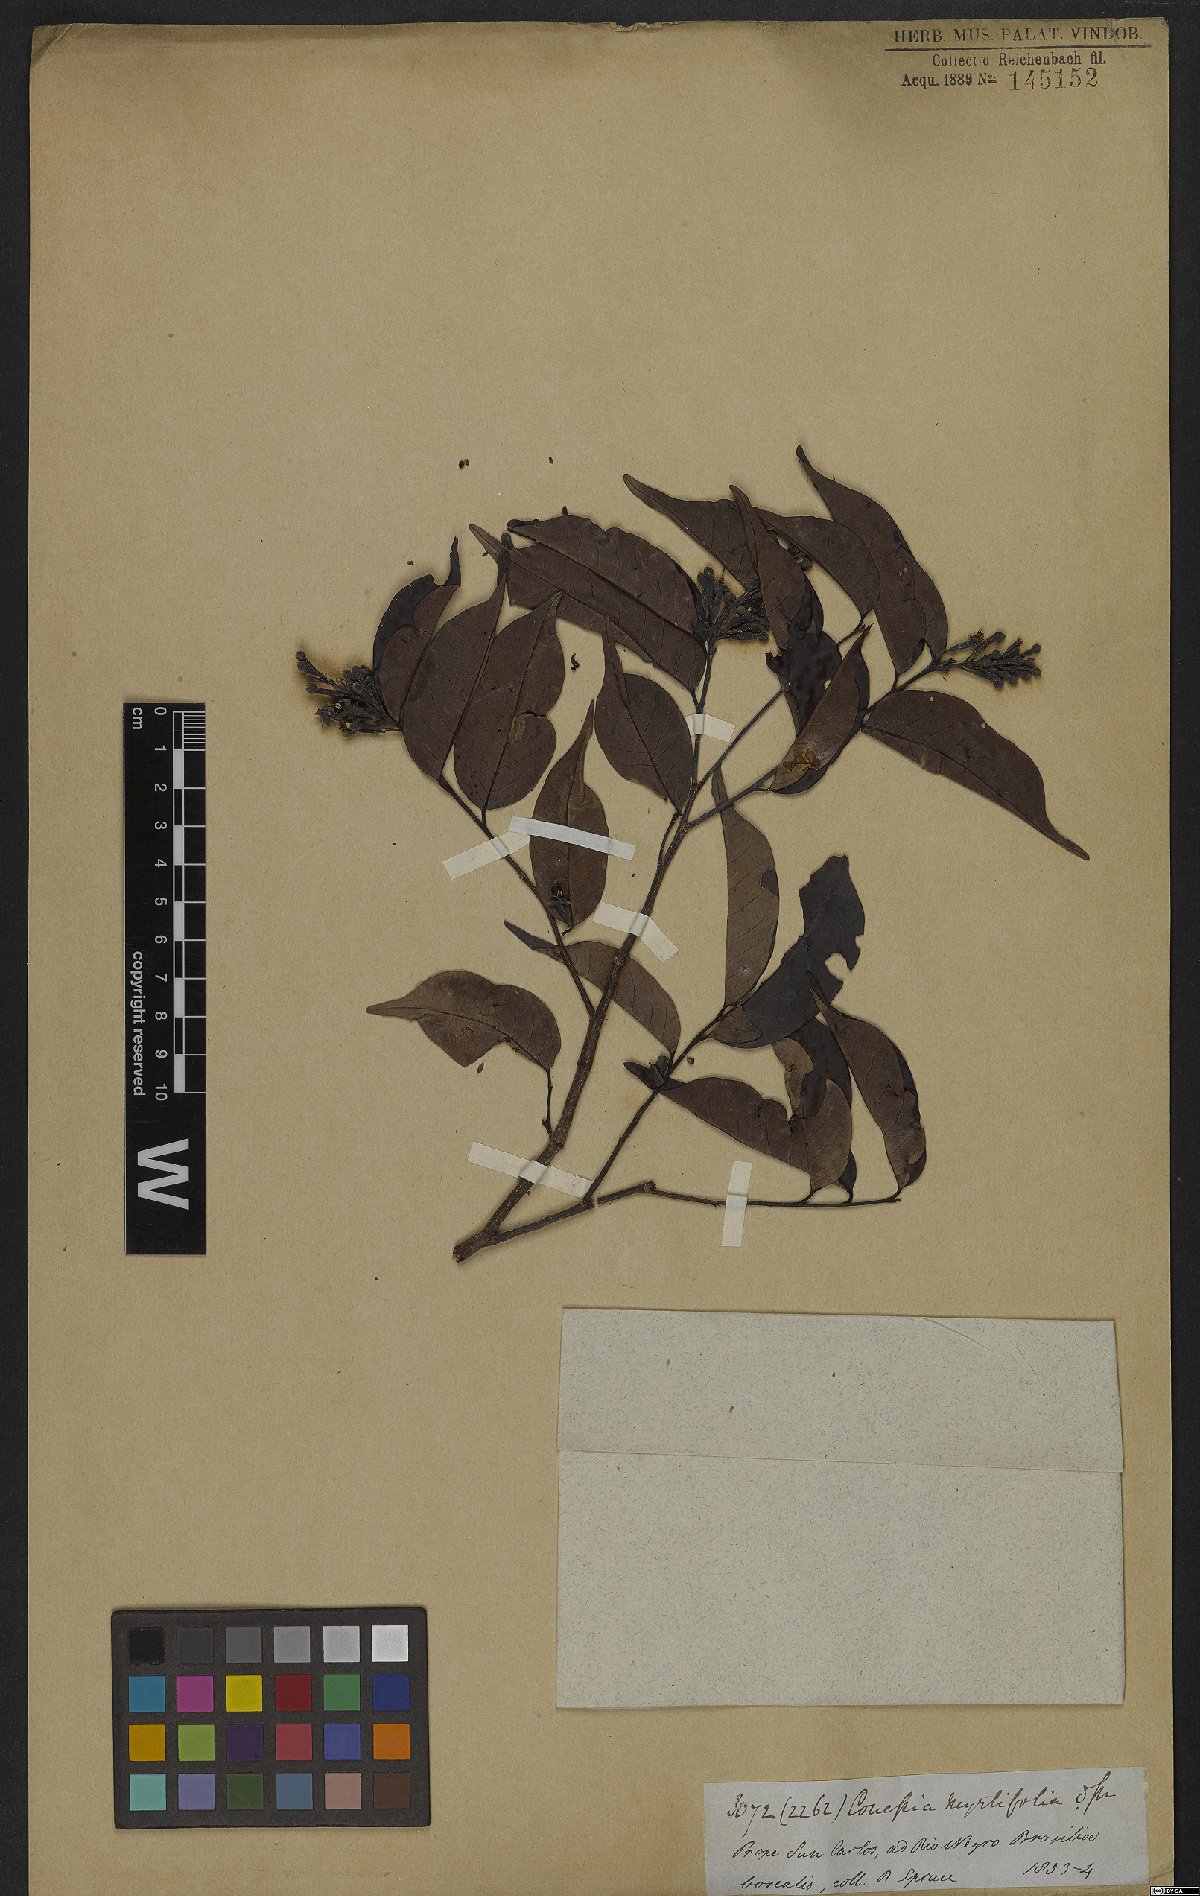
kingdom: Plantae
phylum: Tracheophyta
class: Magnoliopsida
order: Malpighiales
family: Chrysobalanaceae
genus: Couepia
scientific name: Couepia guianensis
